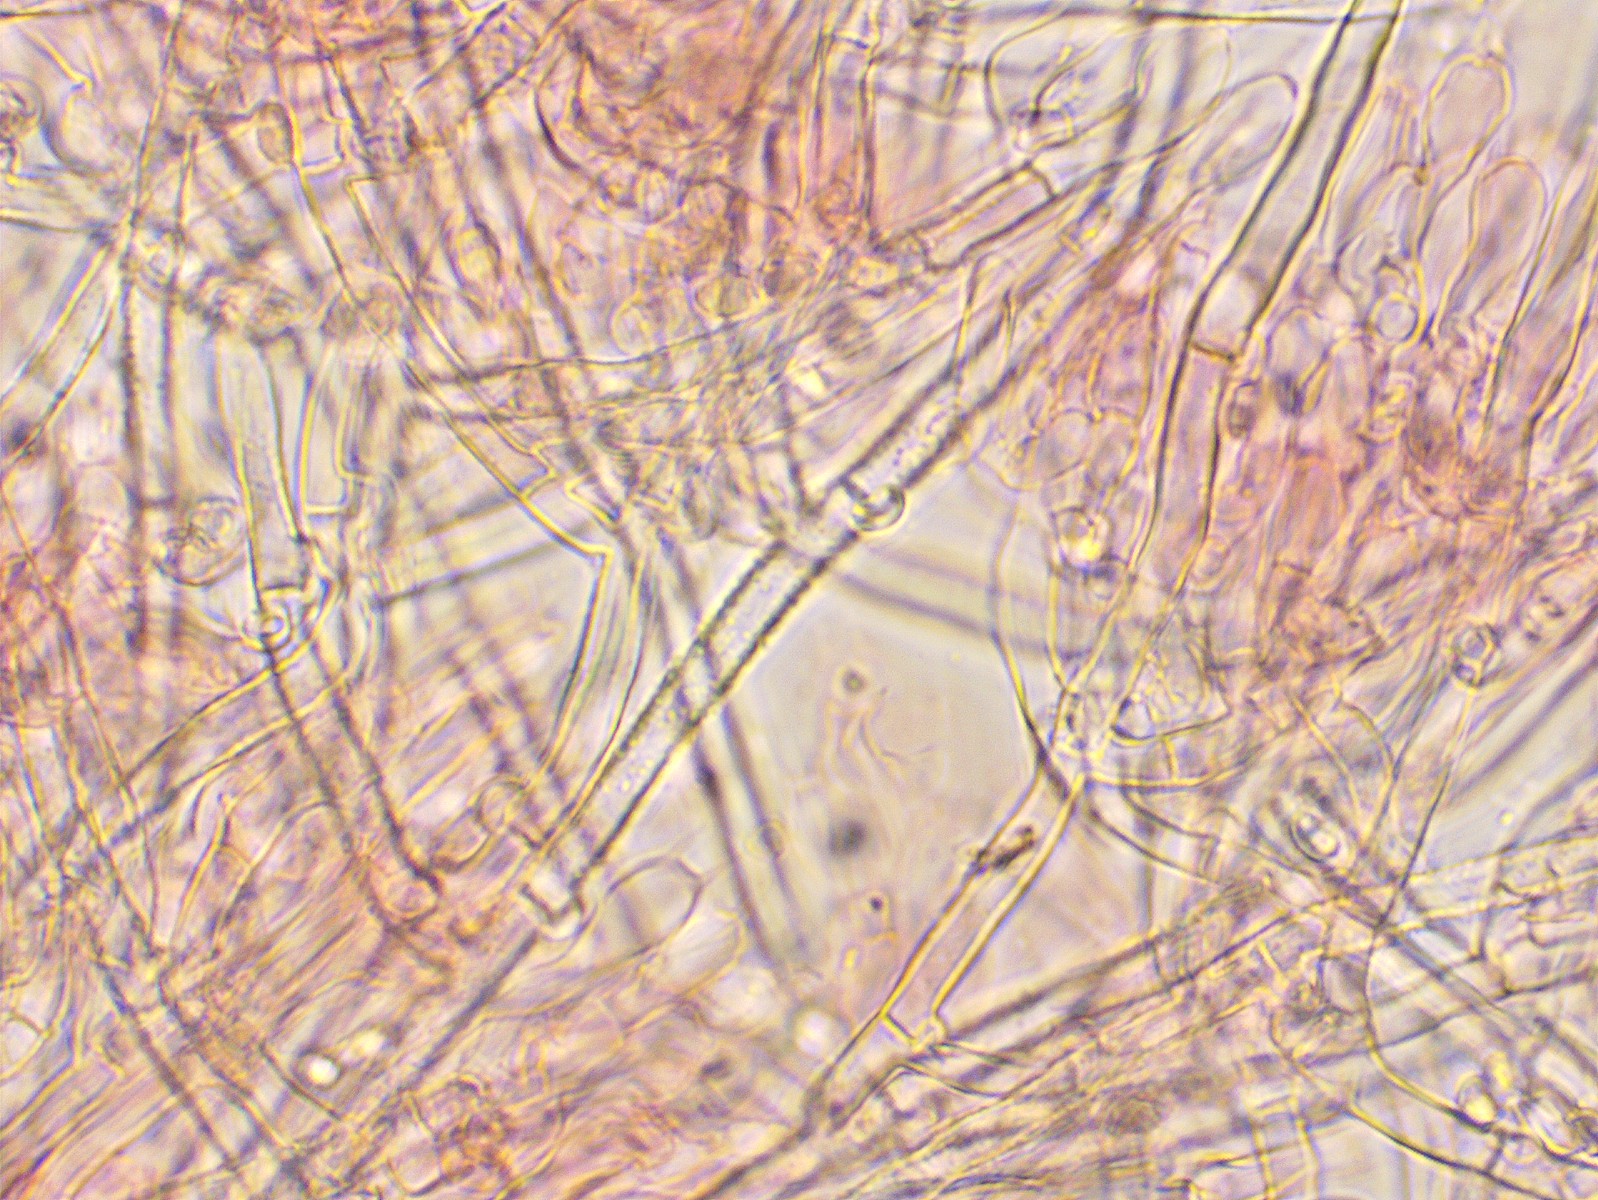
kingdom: Fungi
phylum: Basidiomycota
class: Agaricomycetes
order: Atheliales
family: Atheliaceae
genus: Athelia
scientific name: Athelia bombacina
